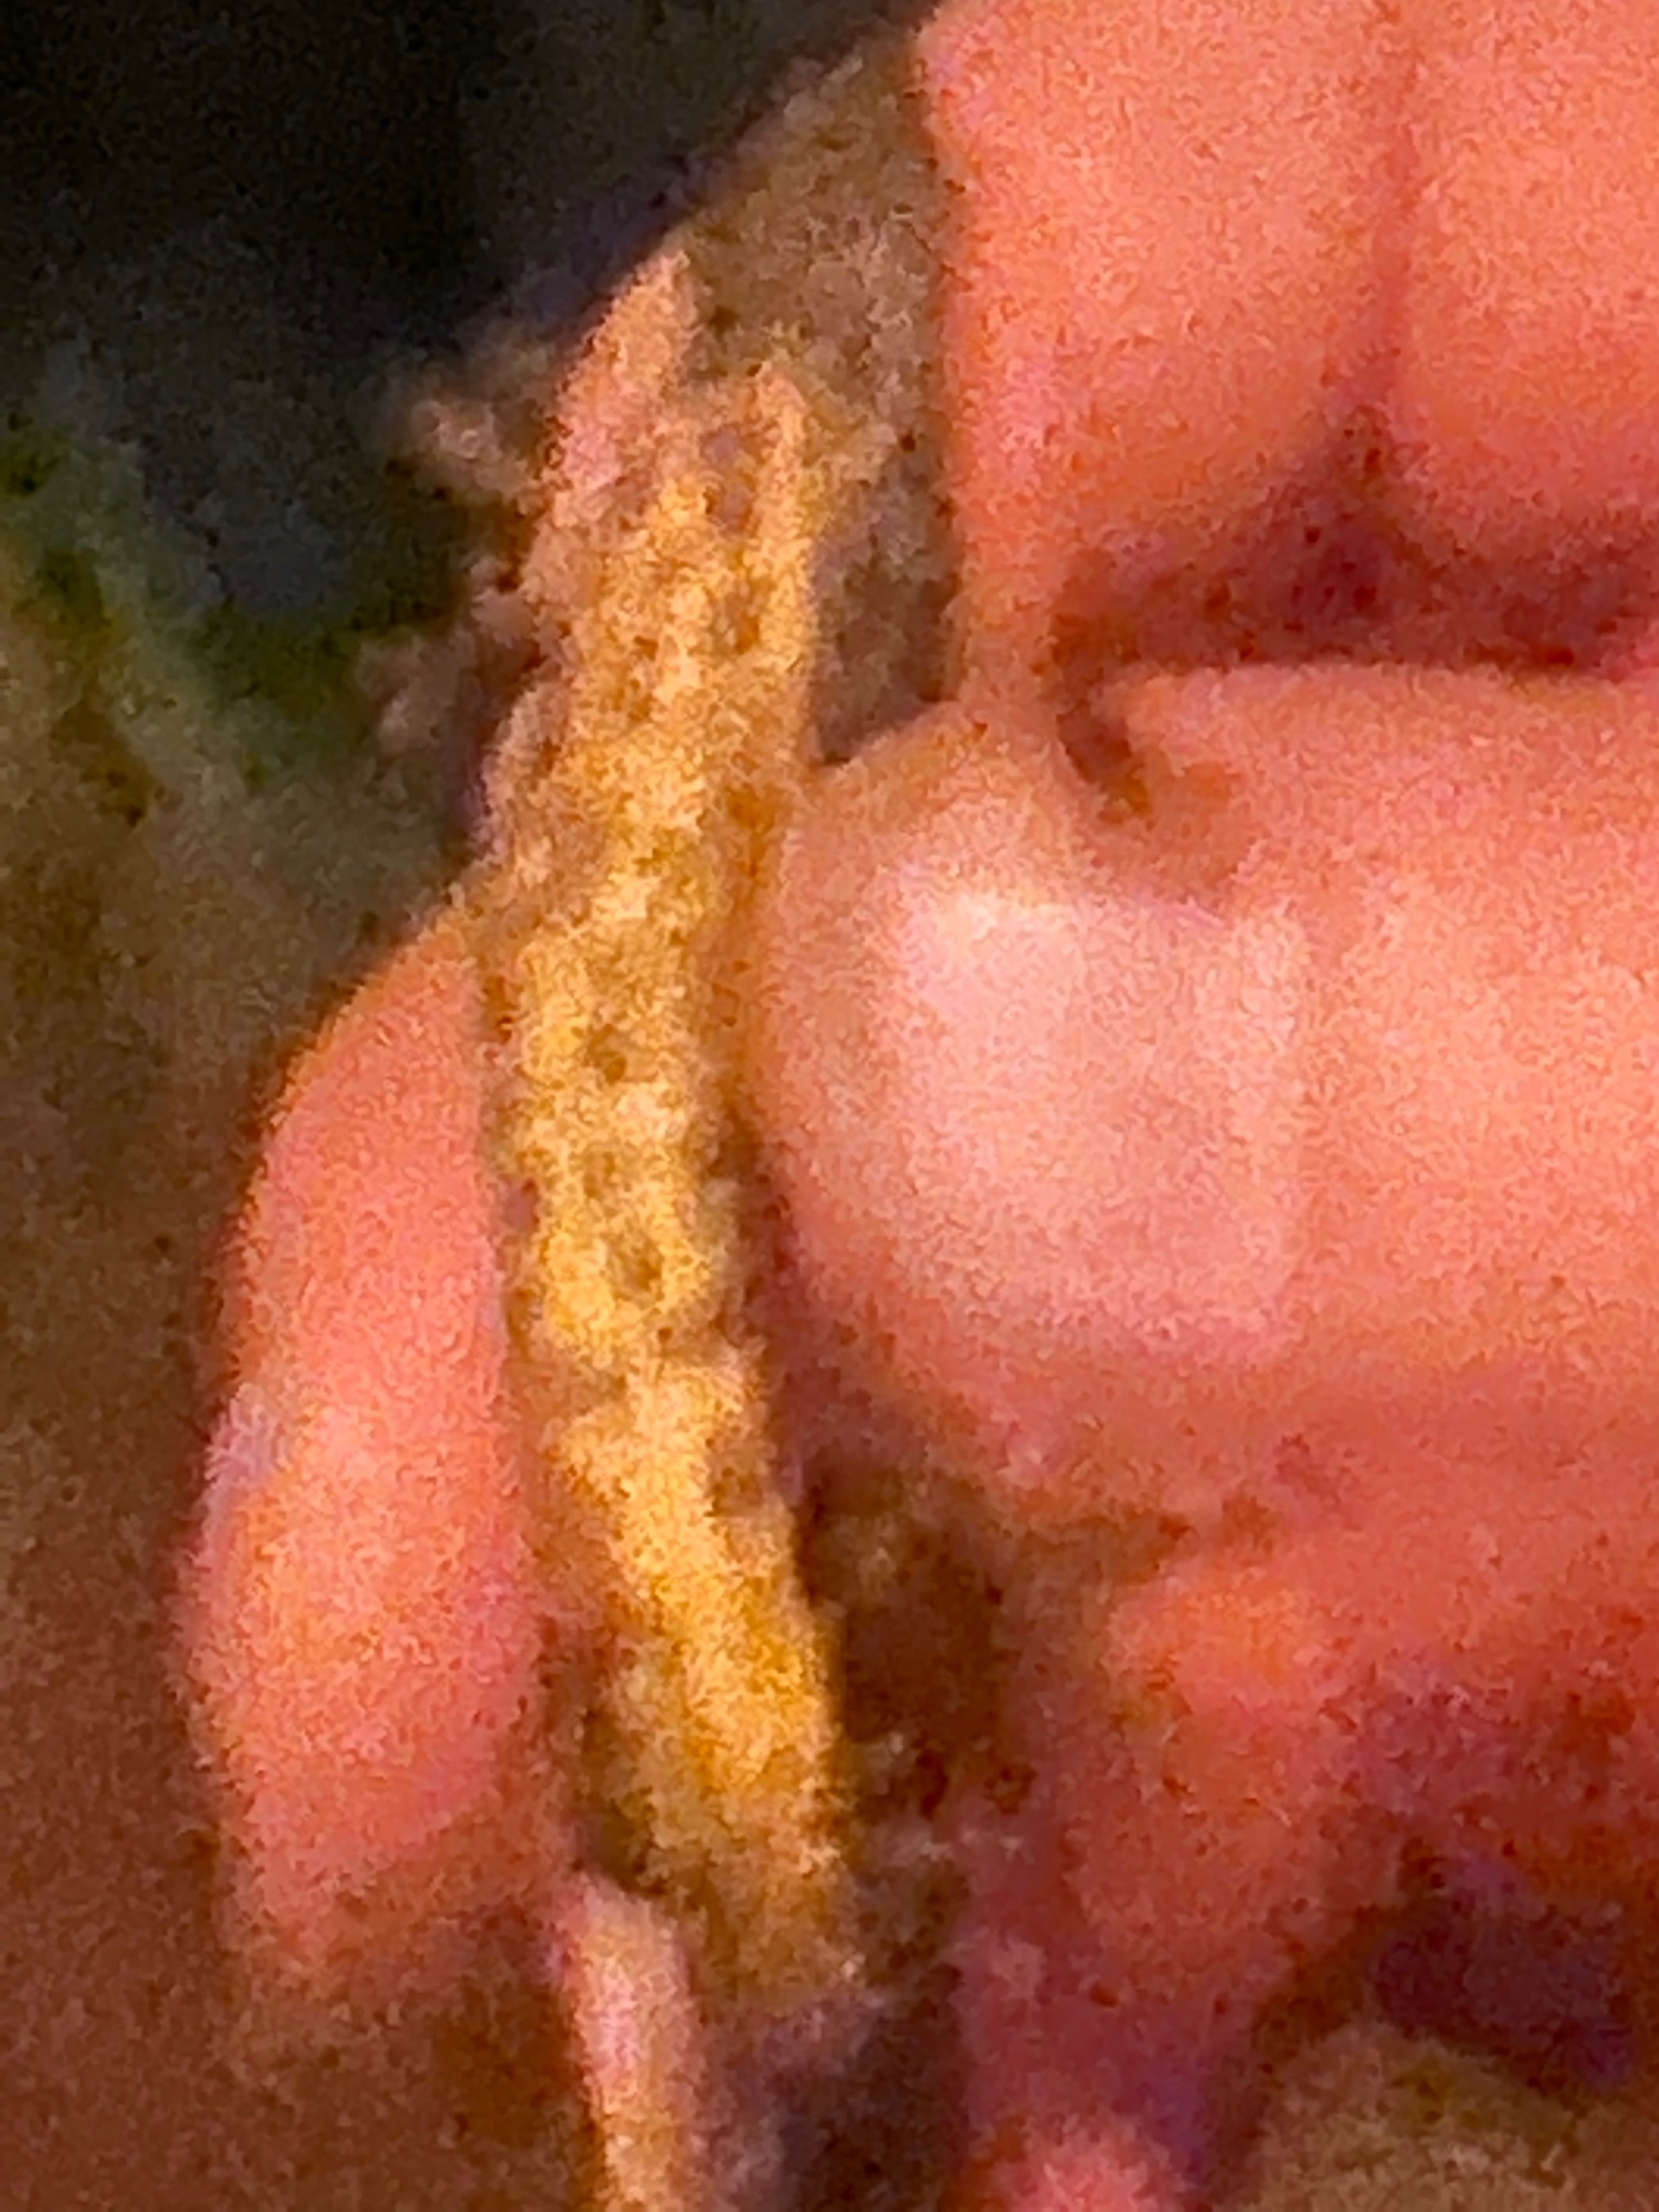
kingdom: Animalia
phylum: Chordata
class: Amphibia
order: Caudata
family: Salamandridae
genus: Triturus
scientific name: Triturus cristatus
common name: Stor vandsalamander
